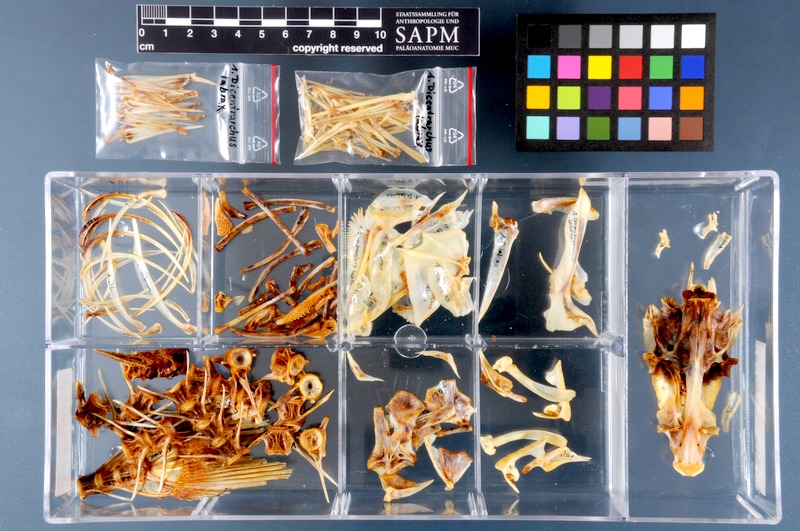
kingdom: Animalia
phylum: Chordata
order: Perciformes
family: Moronidae
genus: Dicentrarchus
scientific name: Dicentrarchus labrax
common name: European seabass
